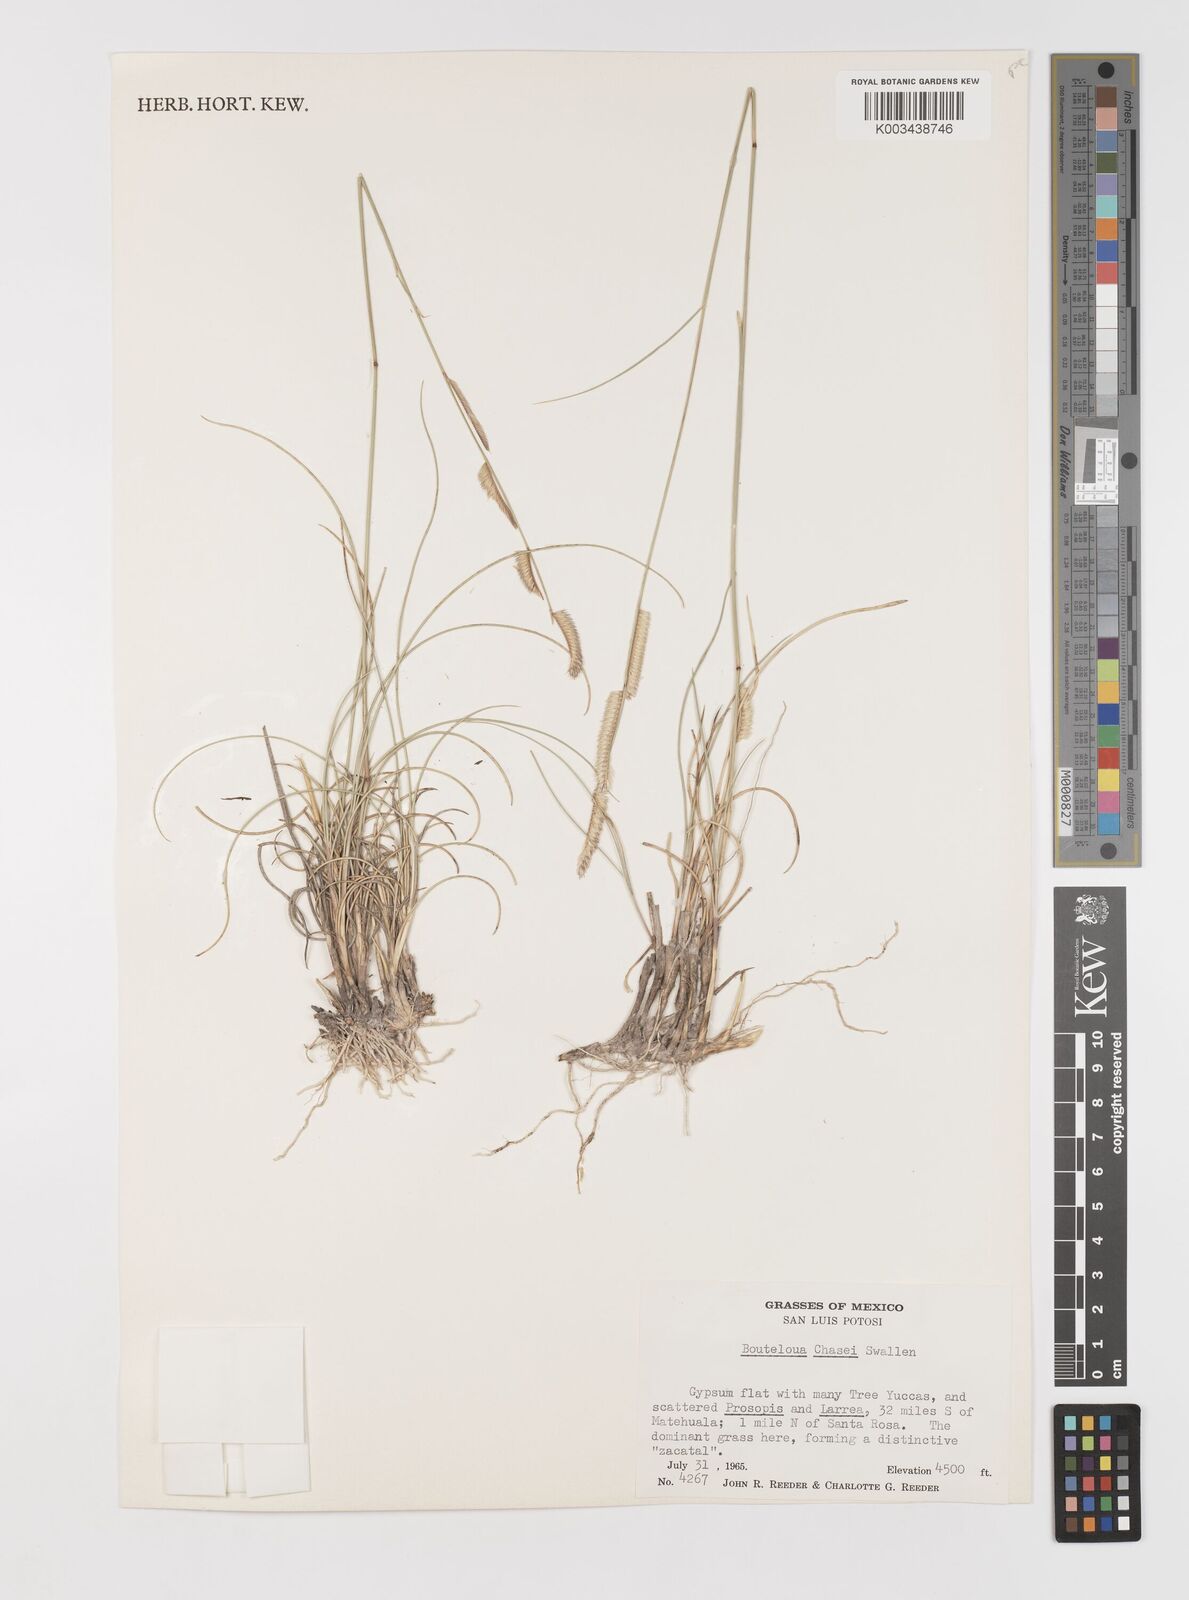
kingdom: Plantae
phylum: Tracheophyta
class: Liliopsida
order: Poales
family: Poaceae
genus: Bouteloua
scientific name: Bouteloua chasei
